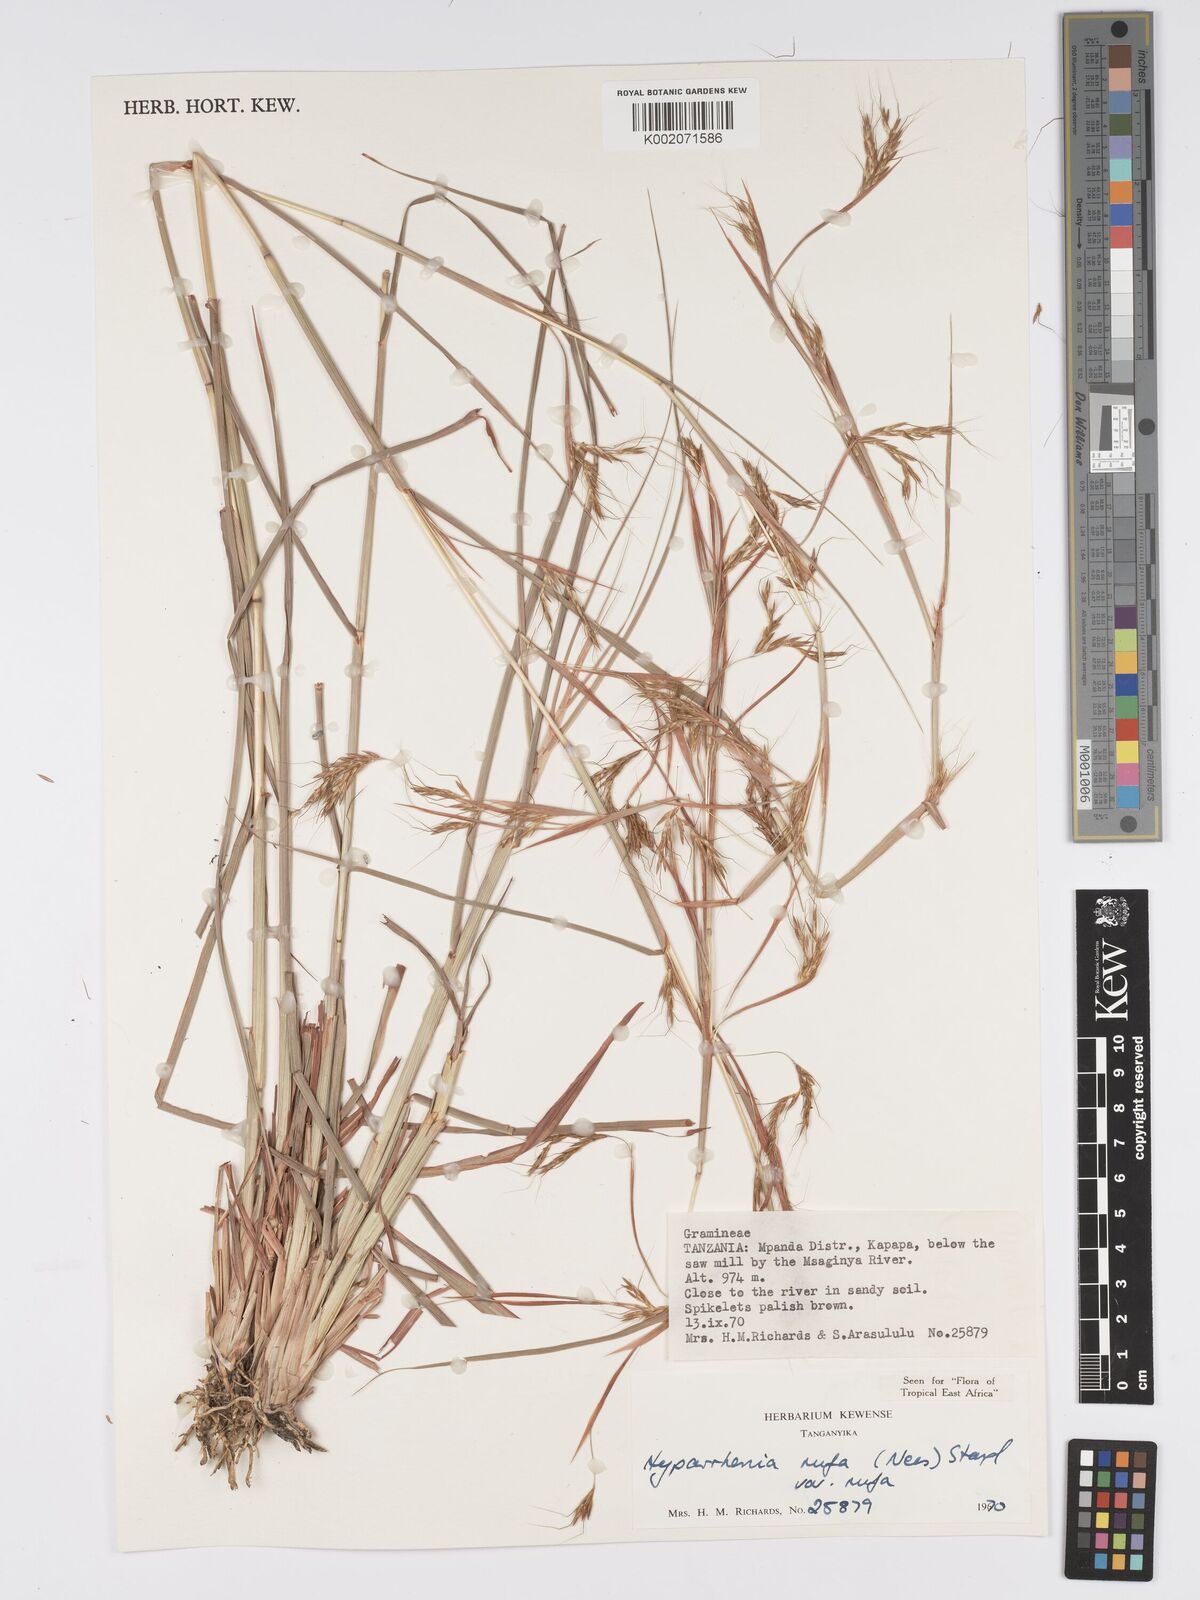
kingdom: Plantae
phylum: Tracheophyta
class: Liliopsida
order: Poales
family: Poaceae
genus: Hyparrhenia
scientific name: Hyparrhenia rufa
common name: Jaraguagrass
